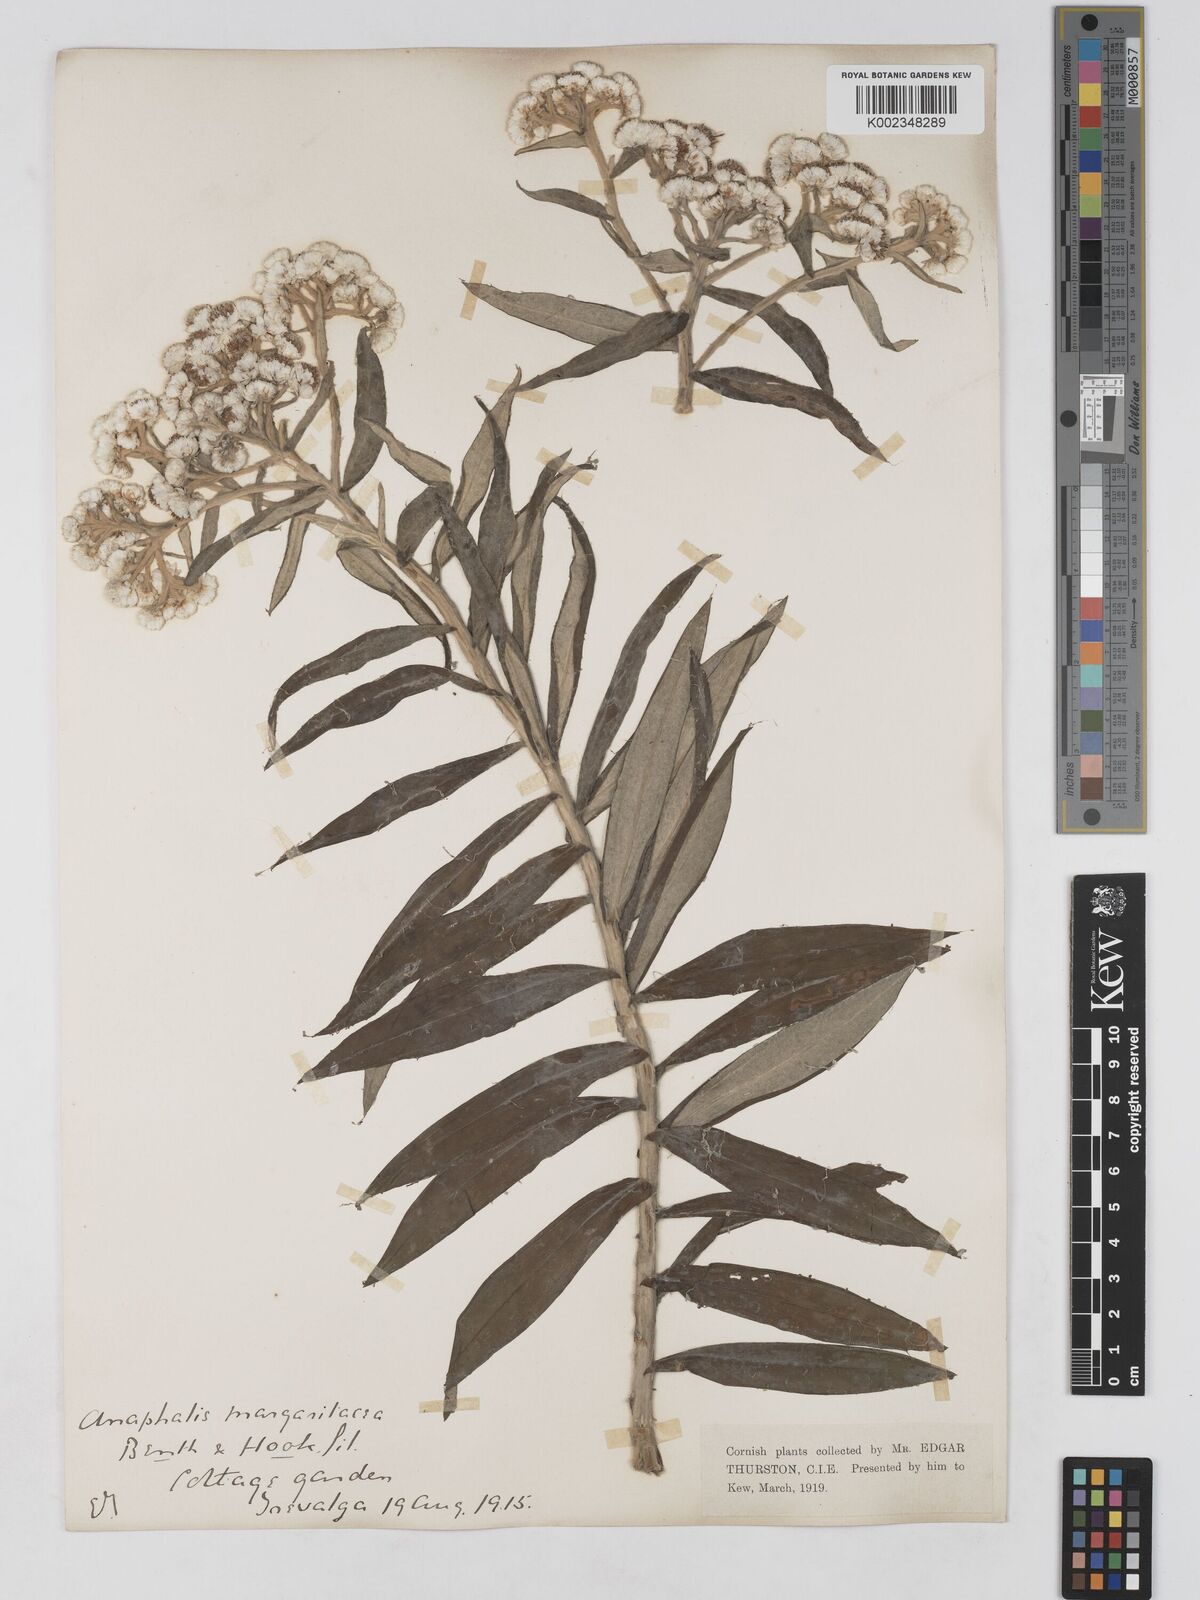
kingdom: Plantae
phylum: Tracheophyta
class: Magnoliopsida
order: Asterales
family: Asteraceae
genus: Anaphalis
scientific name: Anaphalis margaritacea
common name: Pearly everlasting
